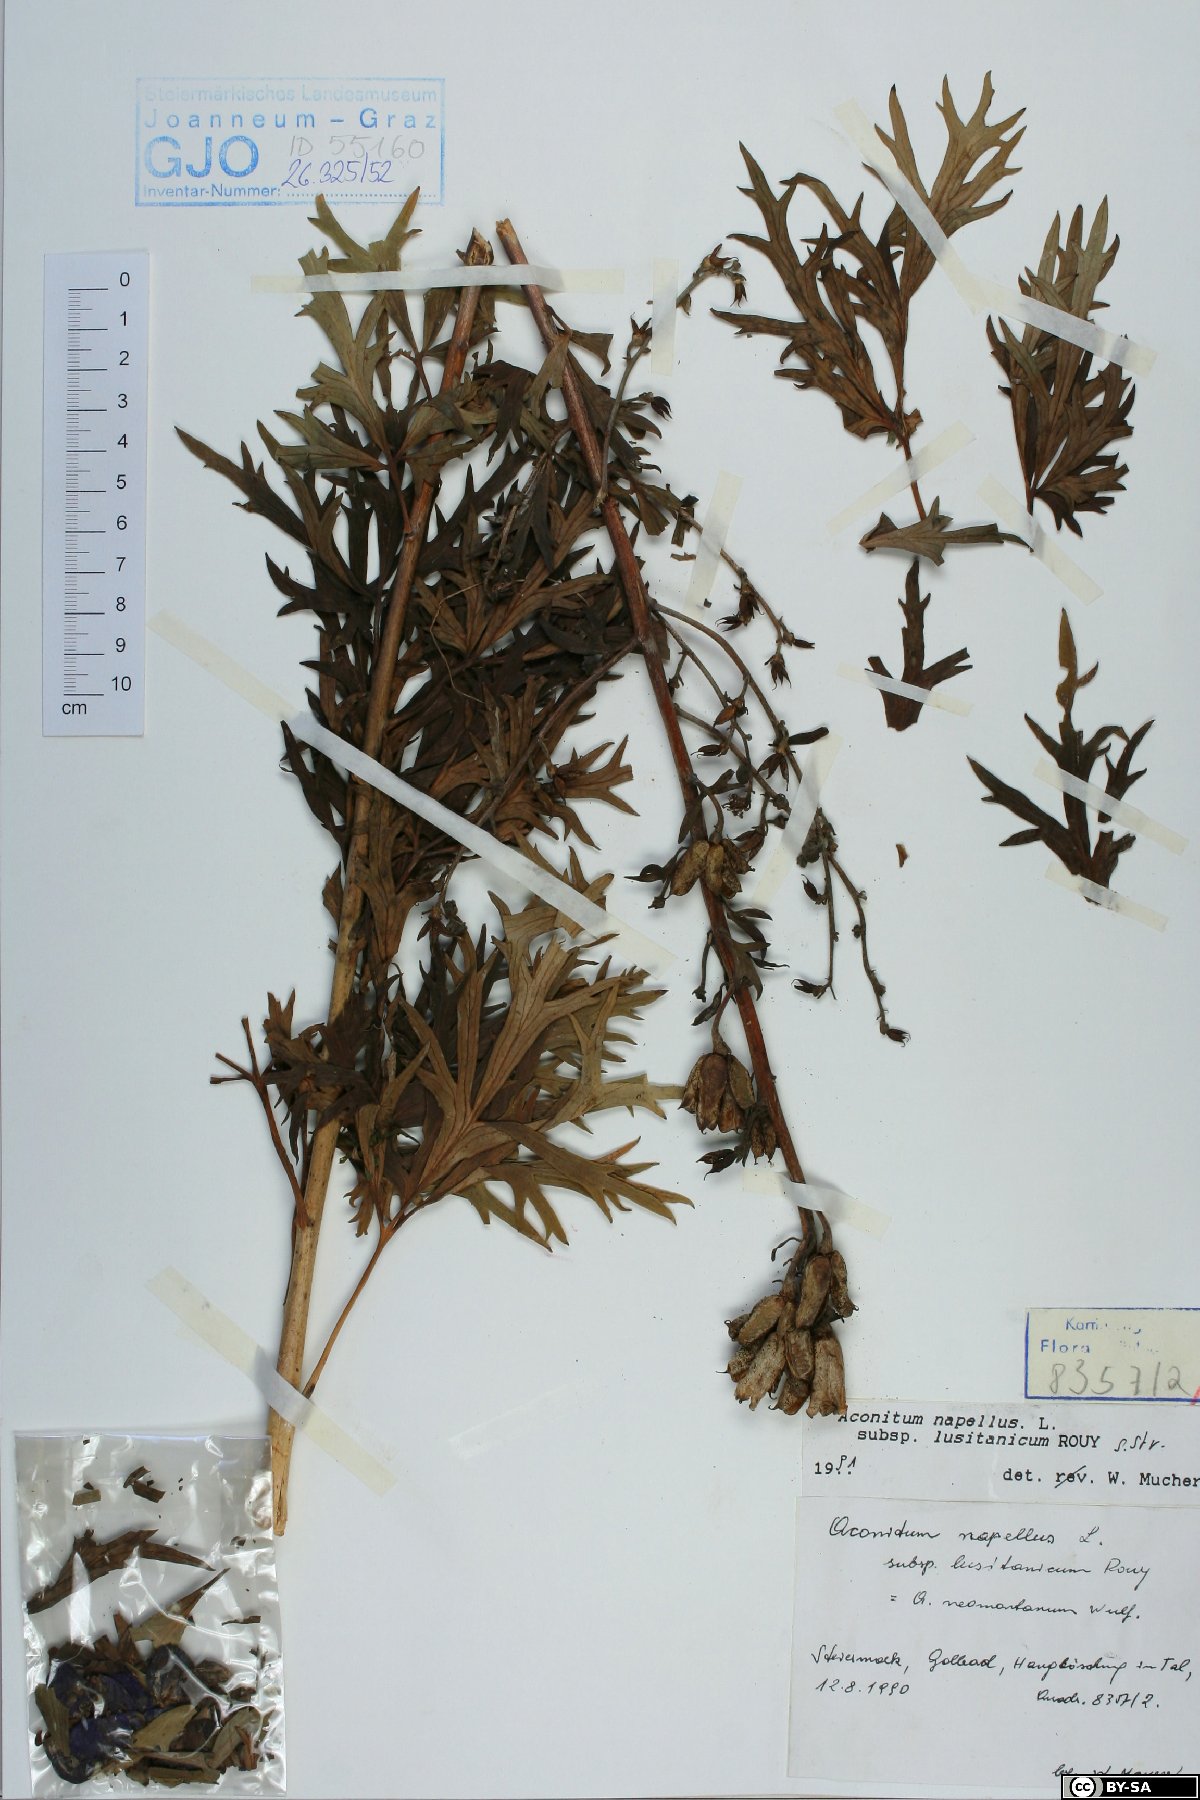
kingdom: Plantae
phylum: Tracheophyta
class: Magnoliopsida
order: Ranunculales
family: Ranunculaceae
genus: Aconitum
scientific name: Aconitum napellus
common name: Garden monkshood
